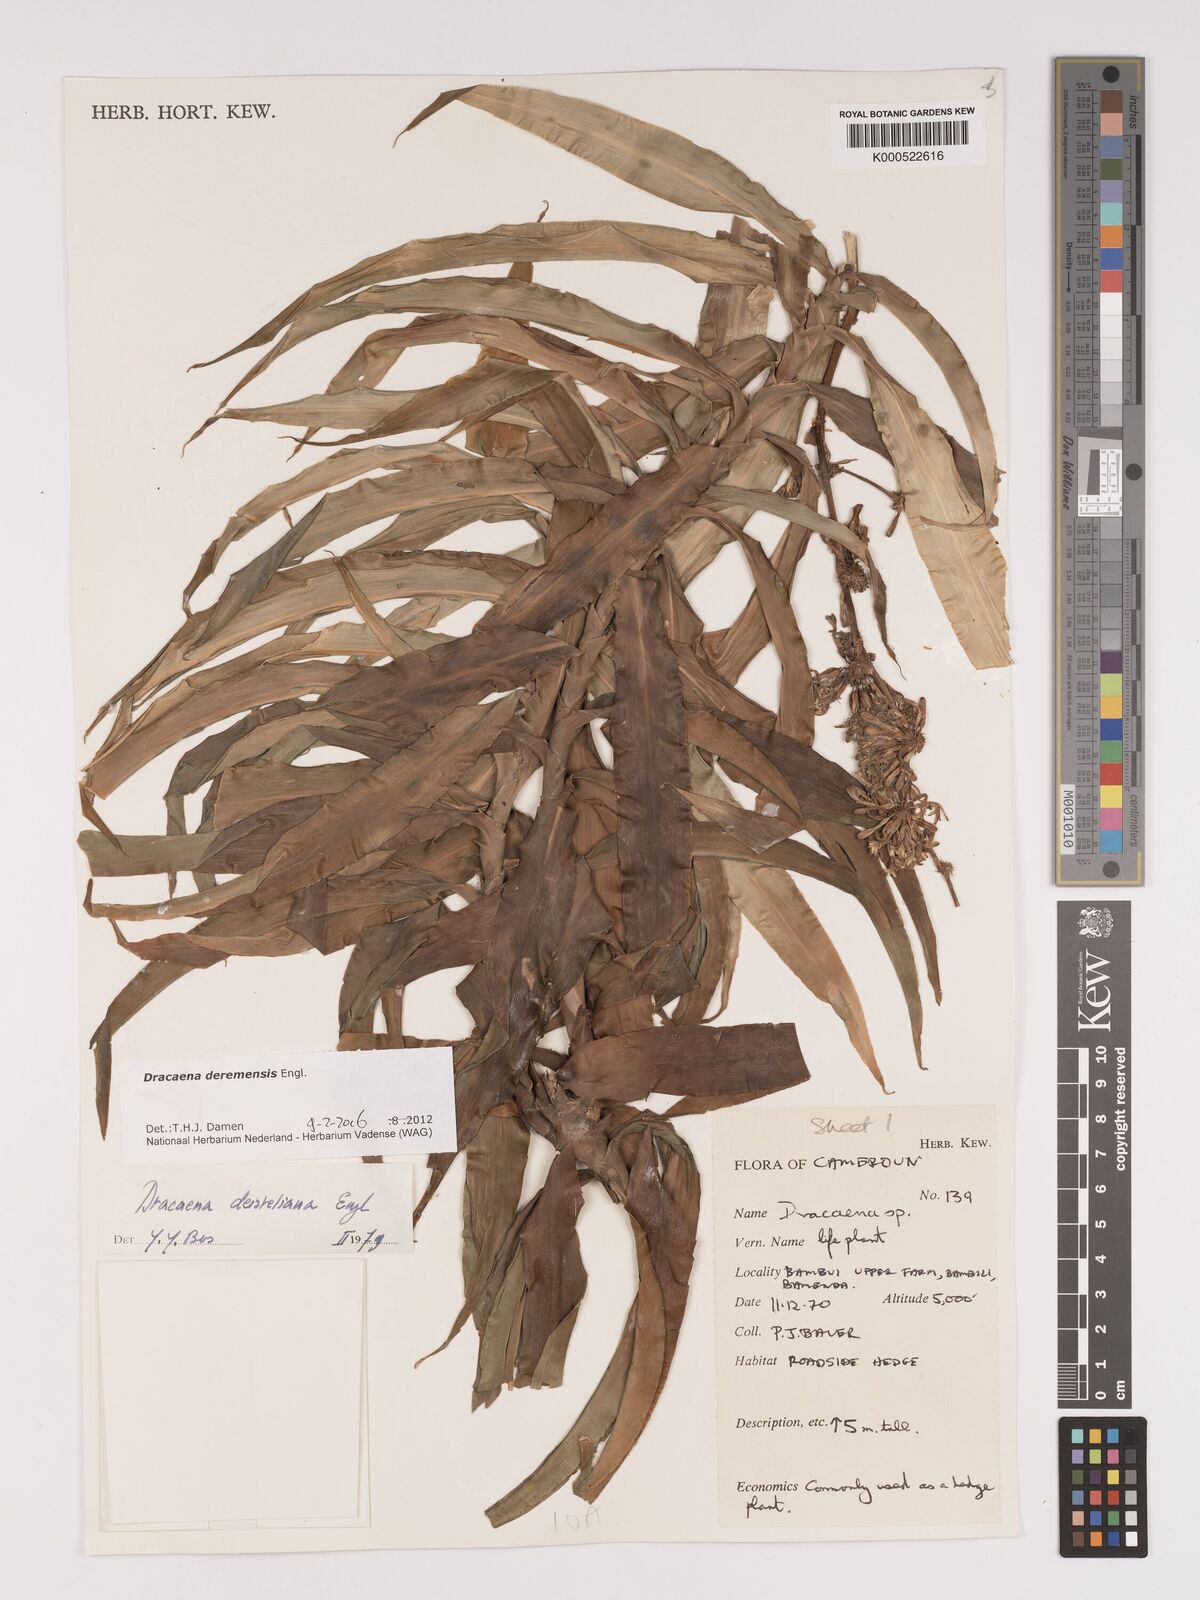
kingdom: Plantae
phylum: Tracheophyta
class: Liliopsida
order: Asparagales
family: Asparagaceae
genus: Dracaena
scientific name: Dracaena fragrans
